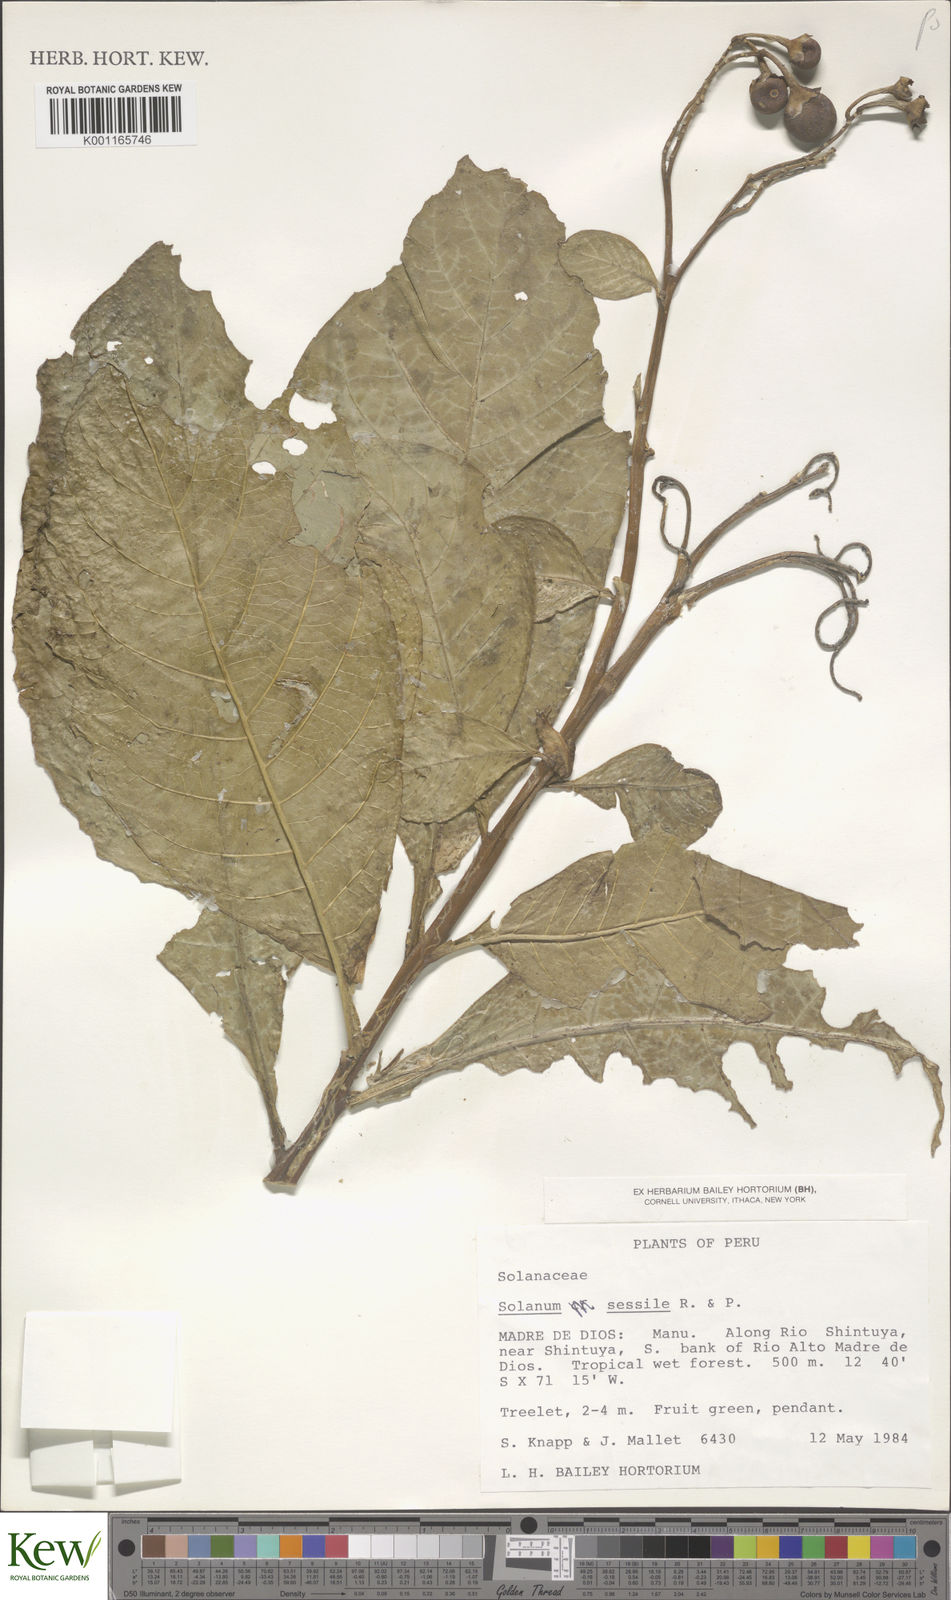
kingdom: Plantae
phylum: Tracheophyta
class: Magnoliopsida
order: Solanales
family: Solanaceae
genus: Solanum
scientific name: Solanum sessile
